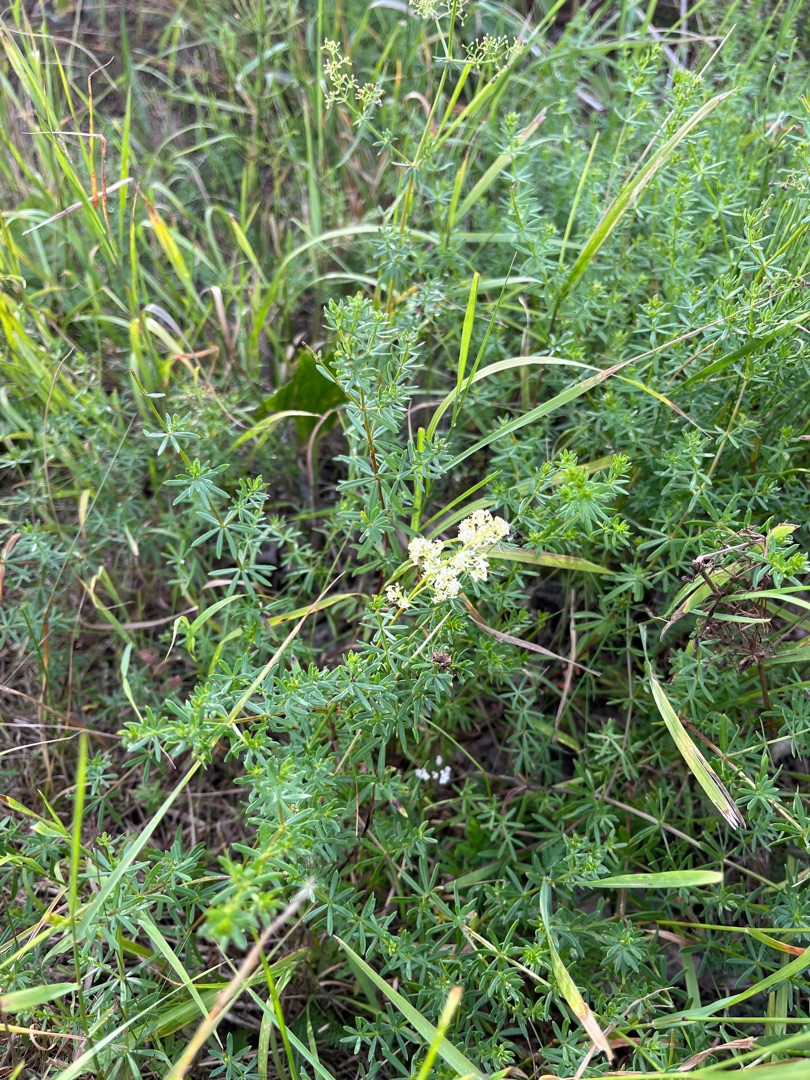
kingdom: Plantae
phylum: Tracheophyta
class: Magnoliopsida
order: Gentianales
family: Rubiaceae
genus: Galium
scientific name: Galium mollugo
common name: Hvid snerre
